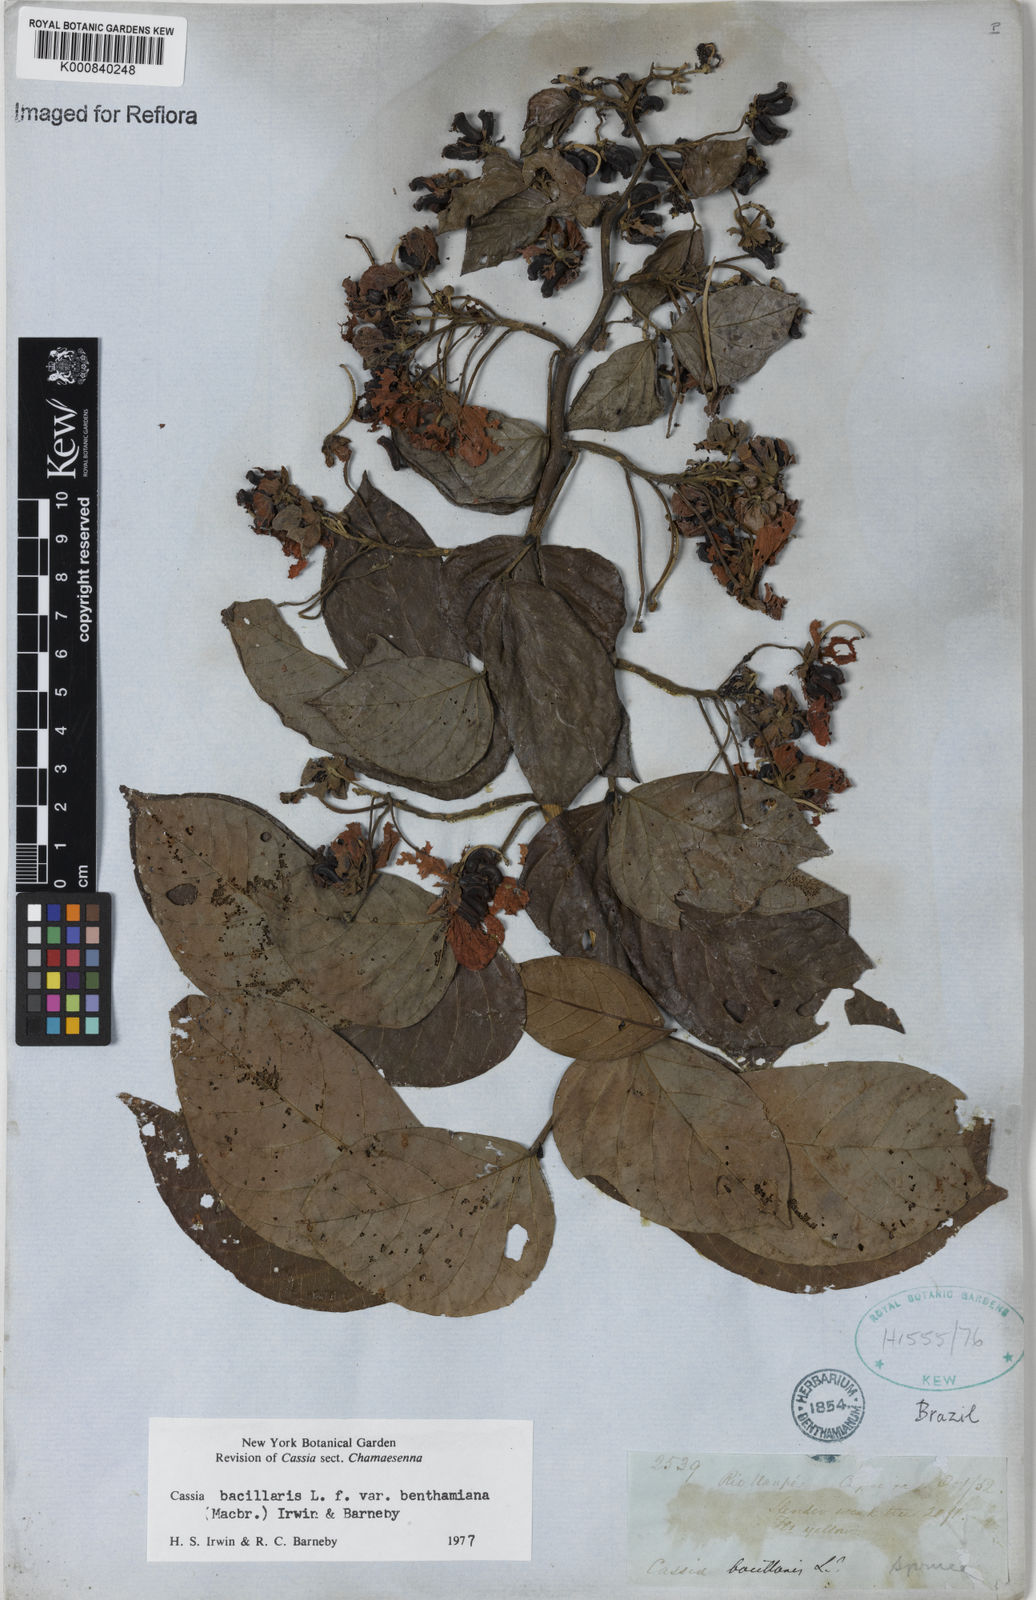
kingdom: Plantae
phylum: Tracheophyta
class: Magnoliopsida
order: Fabales
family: Fabaceae
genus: Senna
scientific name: Senna bacillaris
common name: West indian showertree
